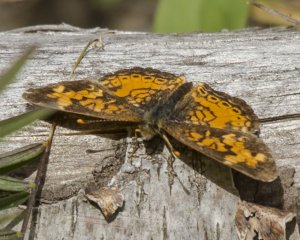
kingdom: Animalia
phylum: Arthropoda
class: Insecta
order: Lepidoptera
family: Nymphalidae
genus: Phyciodes
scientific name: Phyciodes tharos
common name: Northern Crescent
